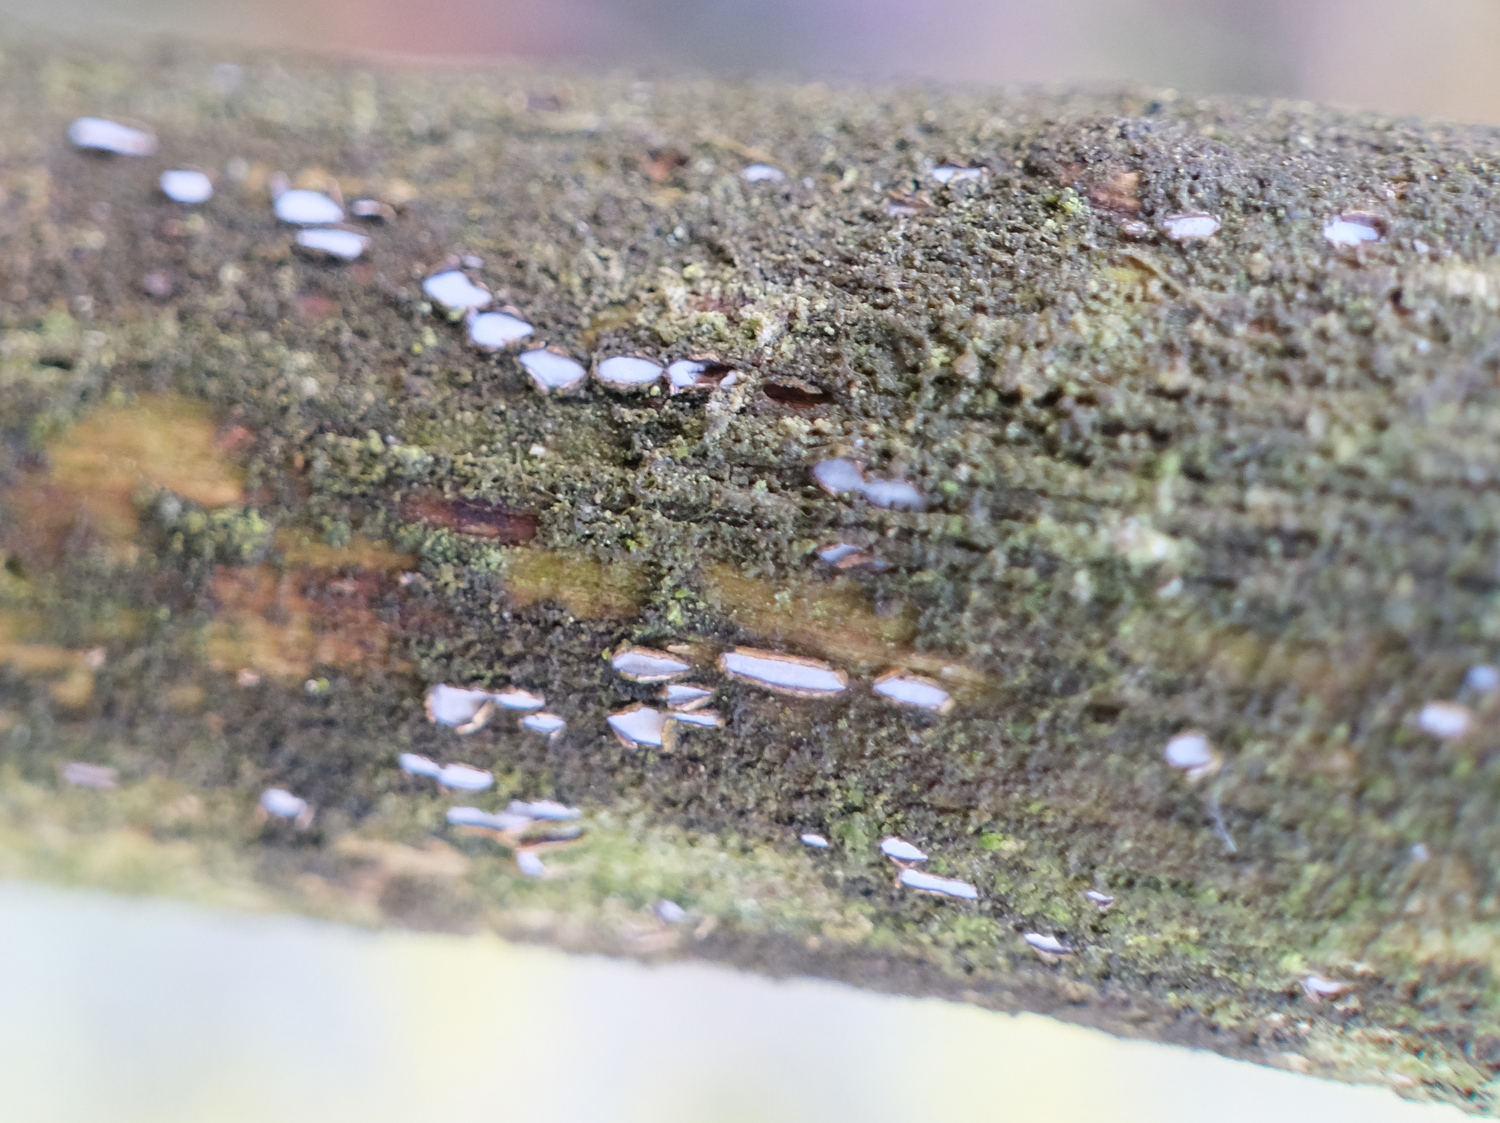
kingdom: Fungi
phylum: Ascomycota
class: Leotiomycetes
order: Chaetomellales
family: Marthamycetaceae
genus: Propolis
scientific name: Propolis farinosa
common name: almindelig vedsprængerskive
